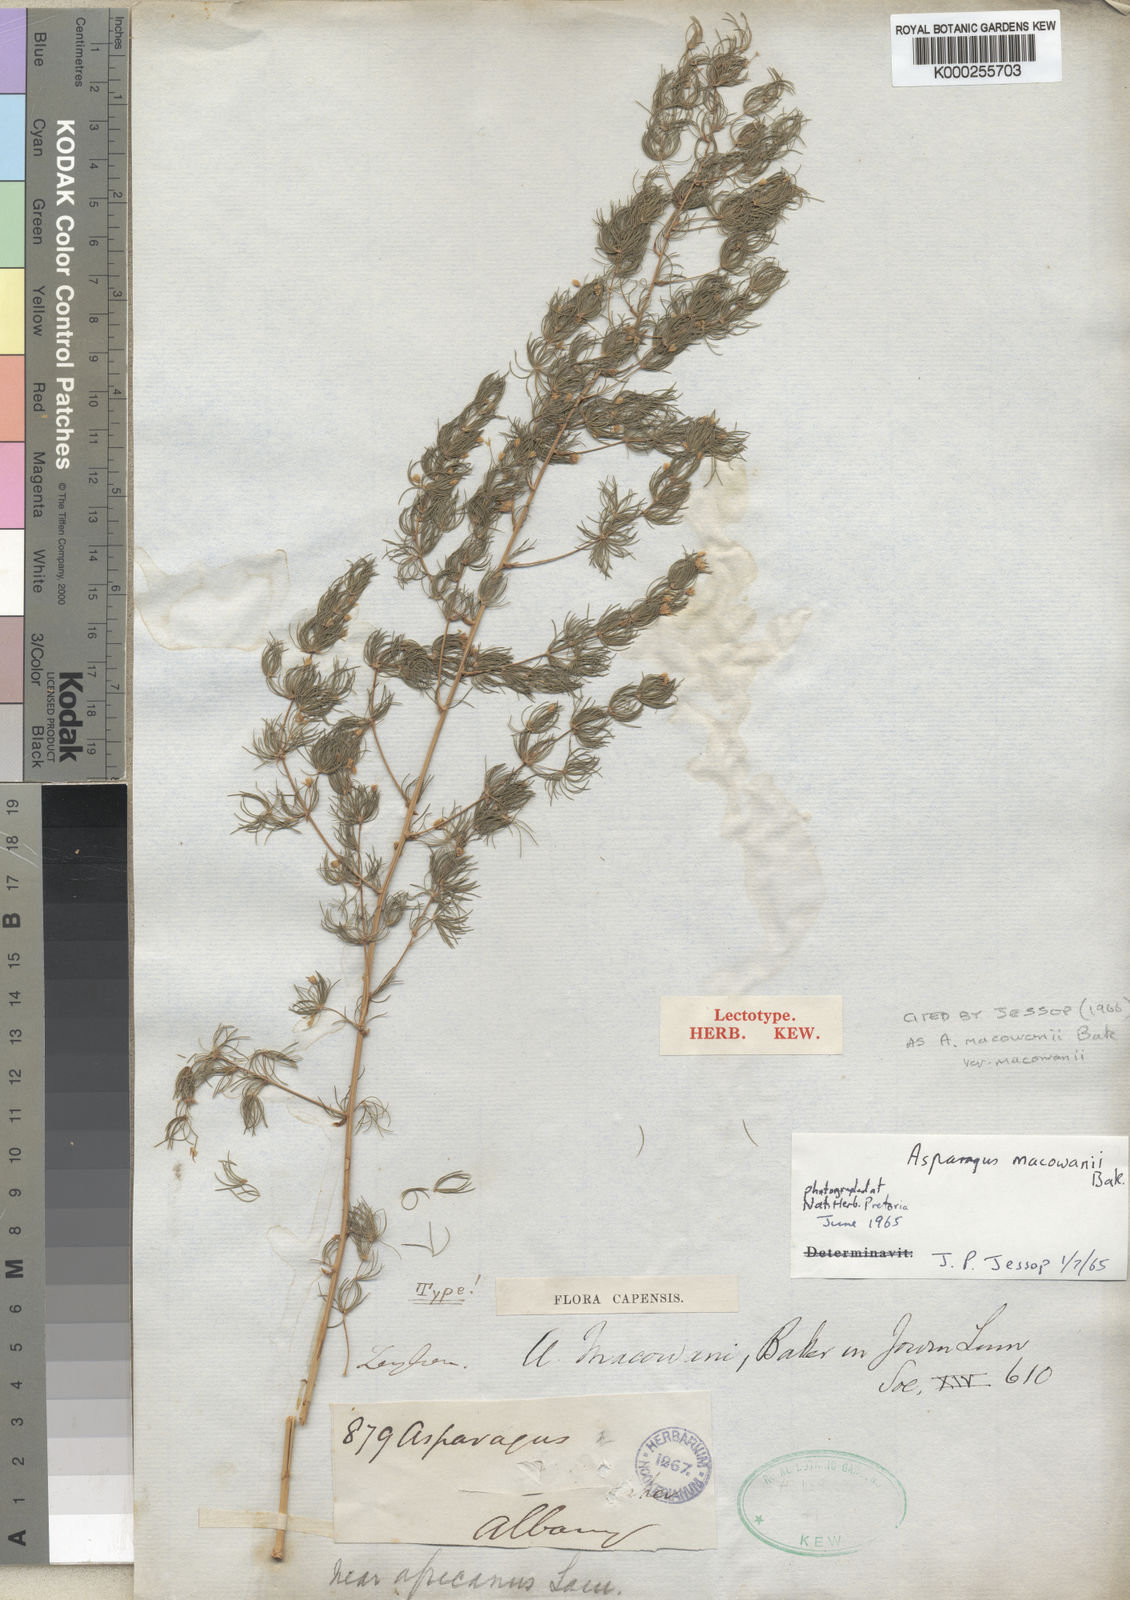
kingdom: Plantae
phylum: Tracheophyta
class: Liliopsida
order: Asparagales
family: Asparagaceae
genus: Asparagus
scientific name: Asparagus macowanii
